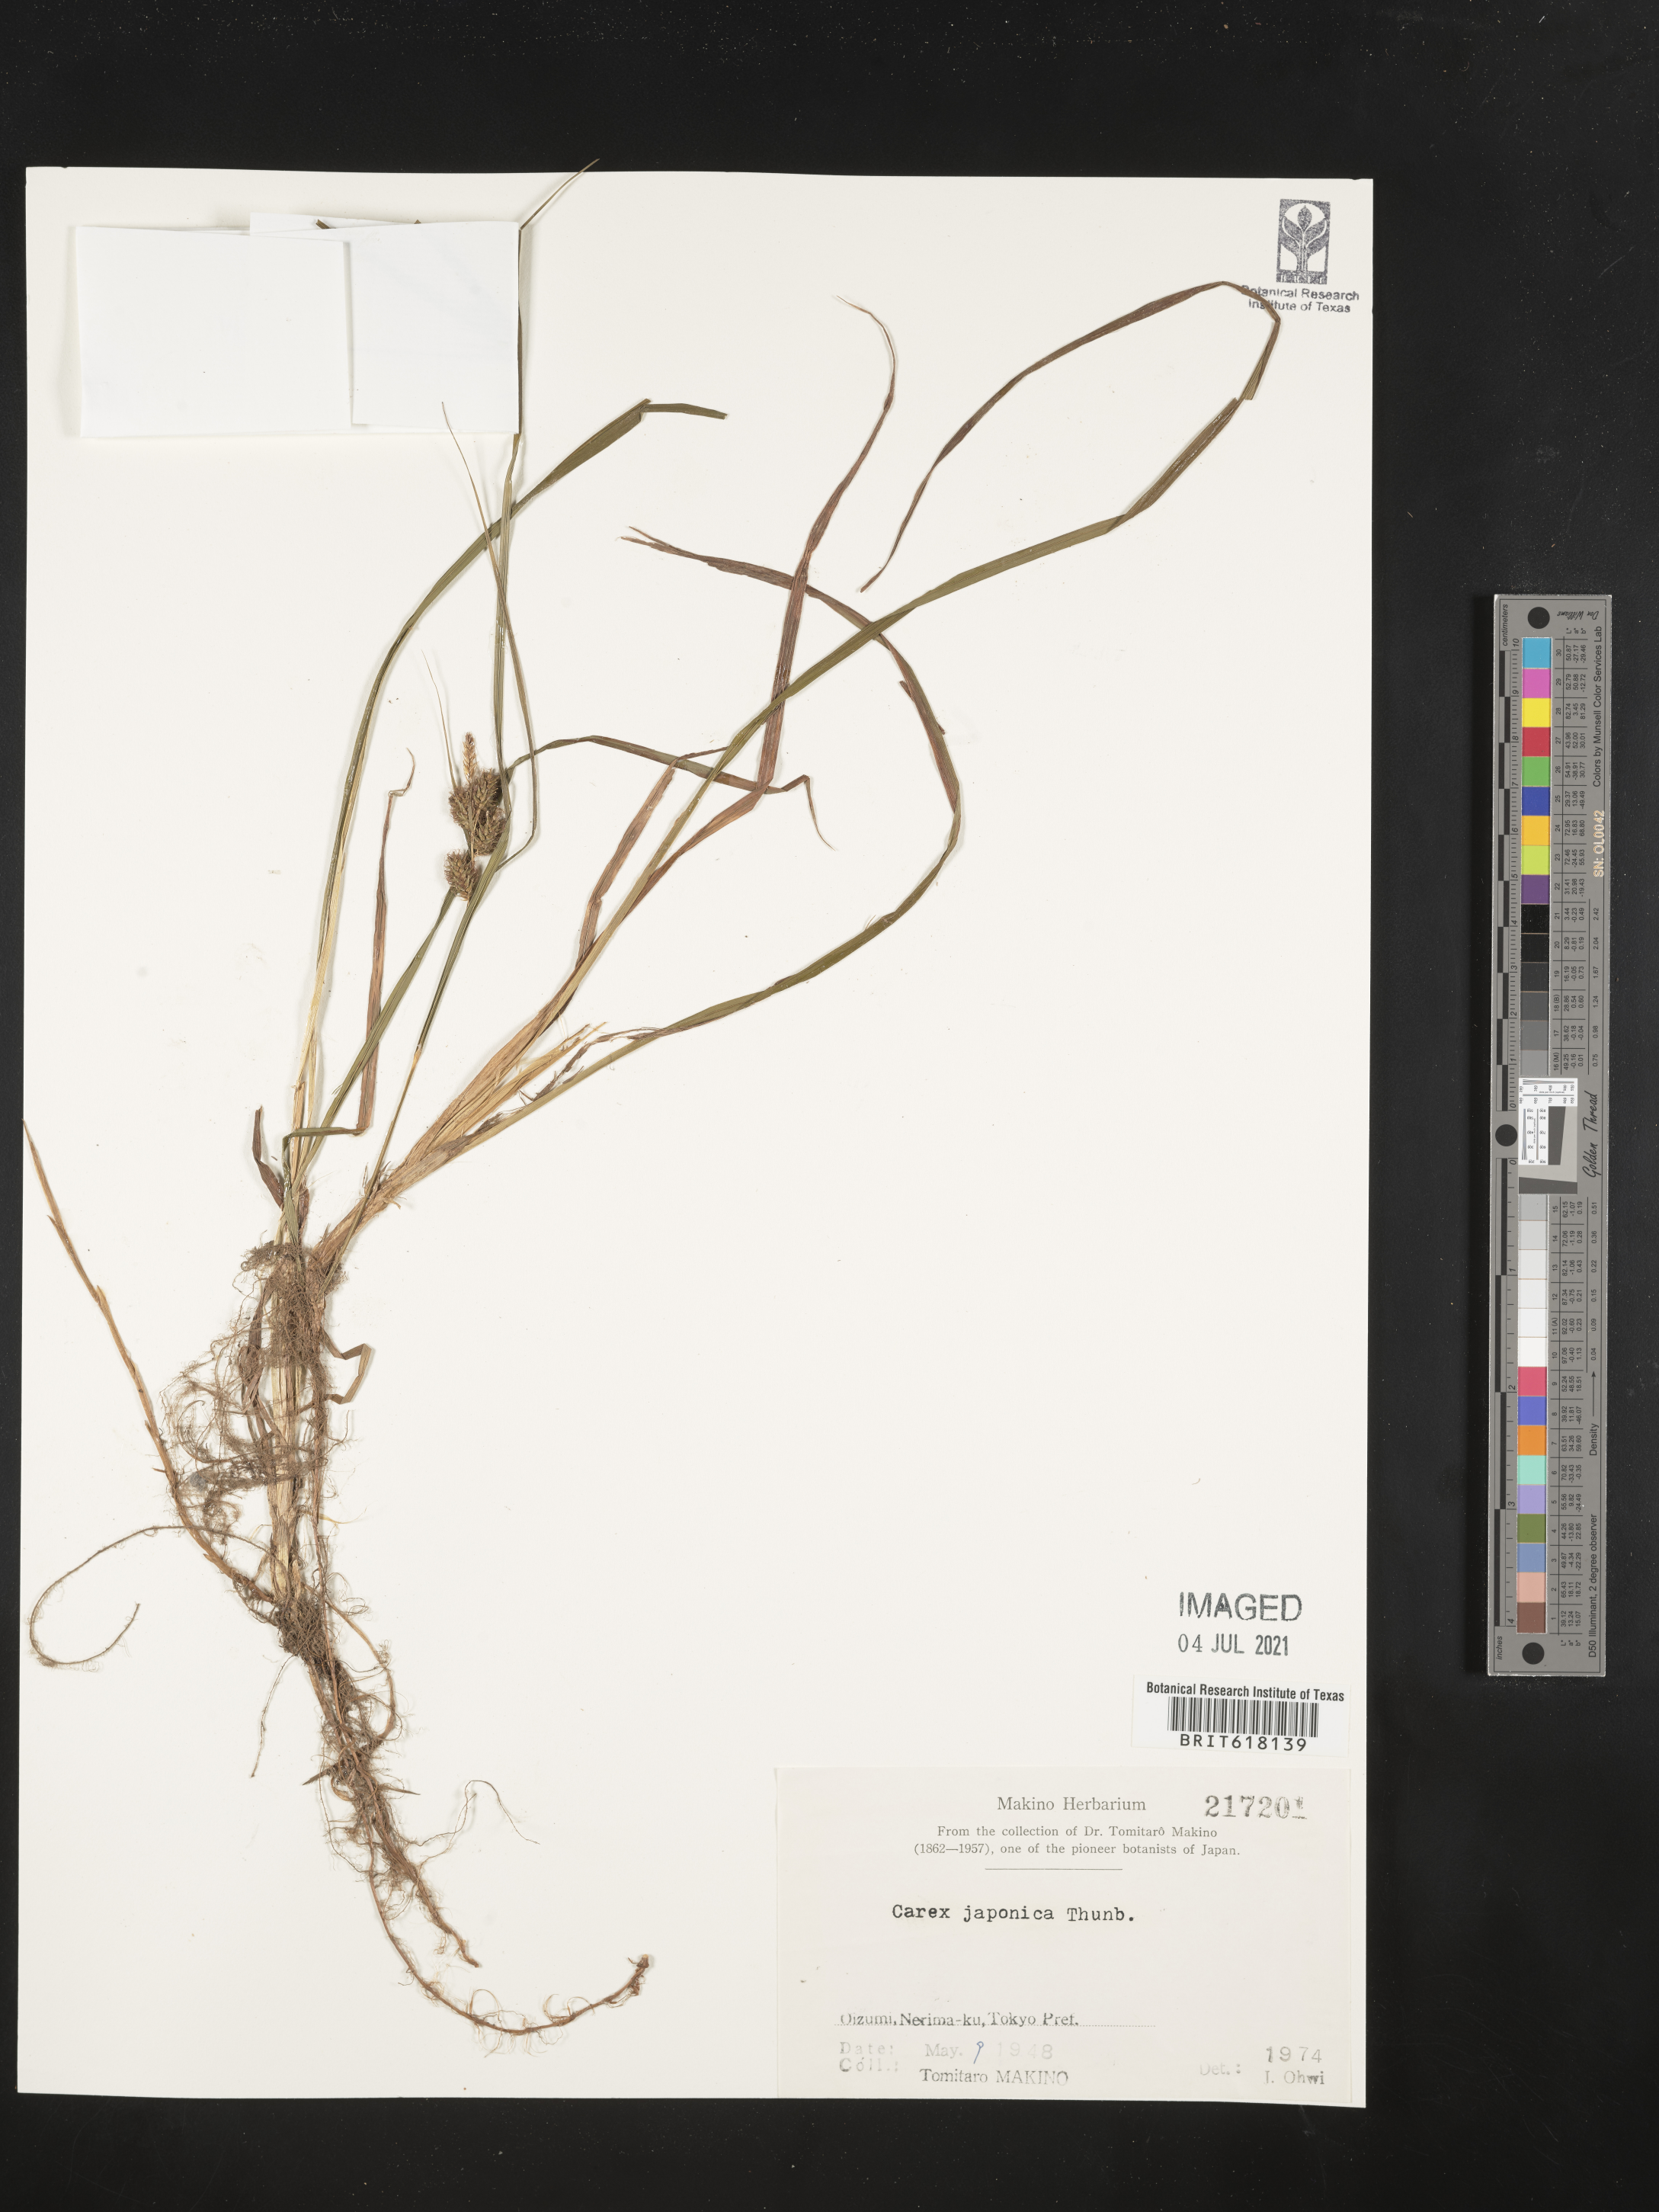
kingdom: Plantae
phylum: Tracheophyta
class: Liliopsida
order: Poales
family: Cyperaceae
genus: Carex
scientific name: Carex japonica
